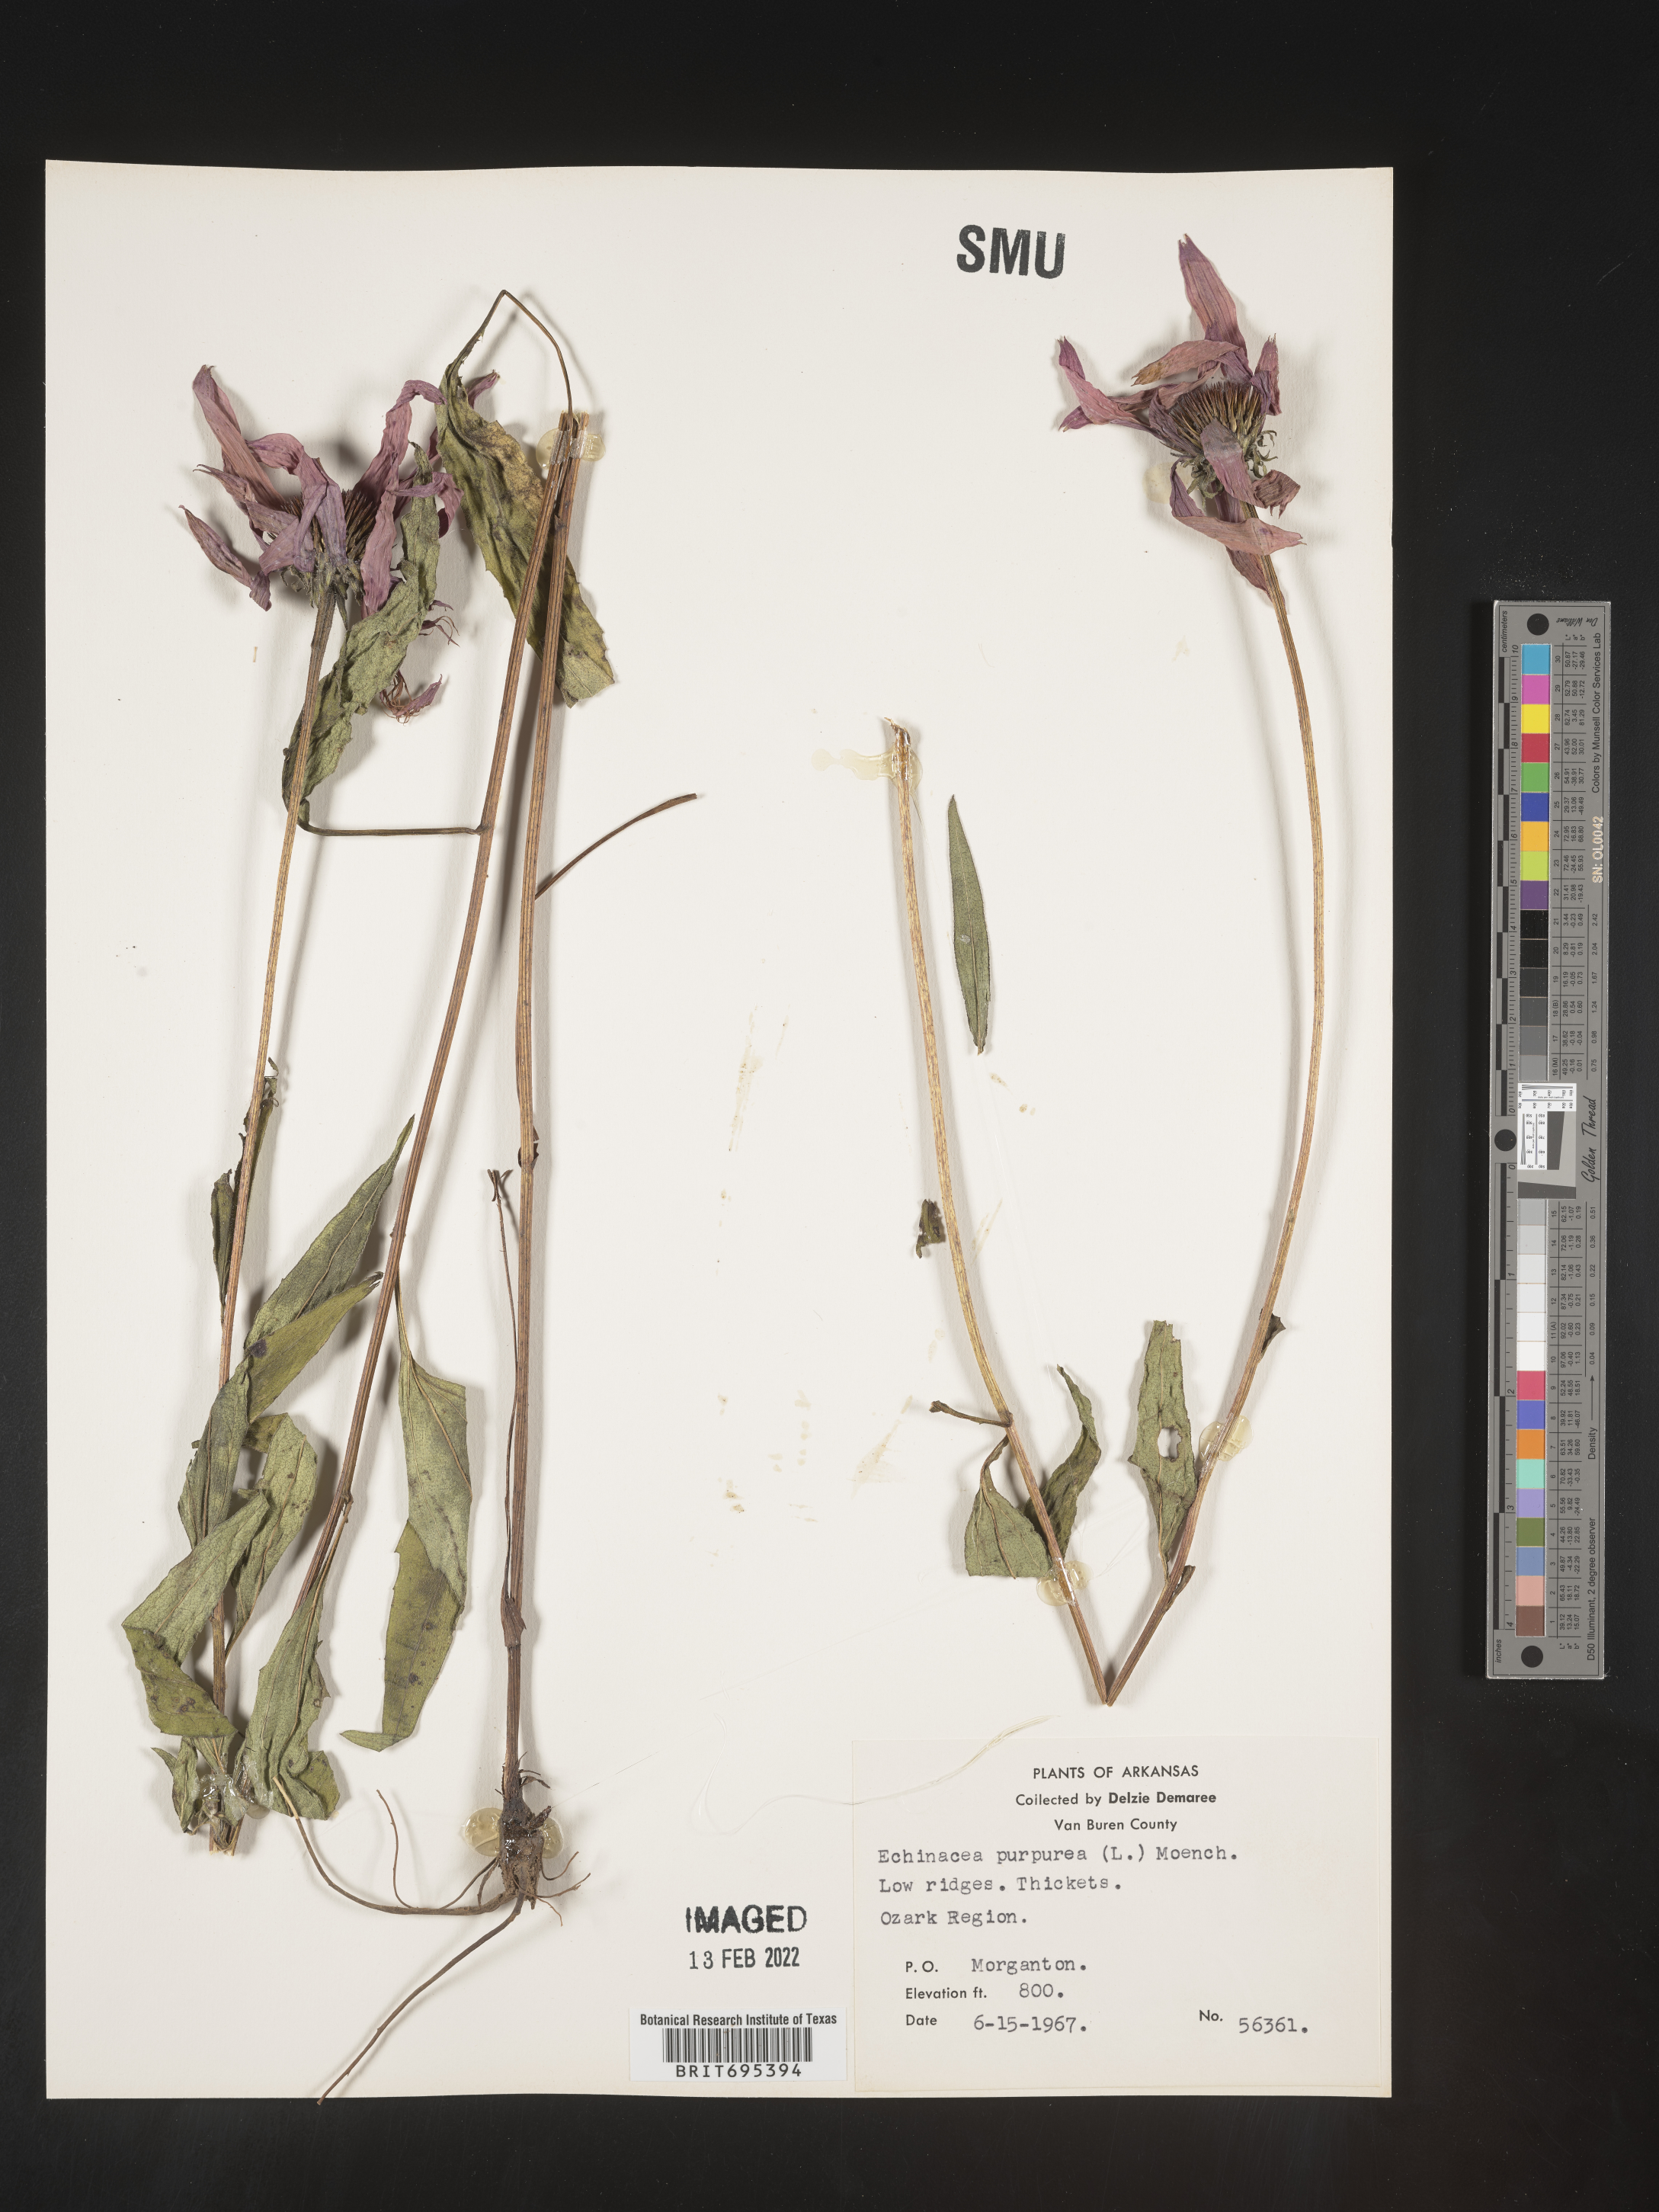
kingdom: Plantae
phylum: Tracheophyta
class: Magnoliopsida
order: Asterales
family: Asteraceae
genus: Echinacea
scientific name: Echinacea purpurea
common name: Broad-leaved purple coneflower
